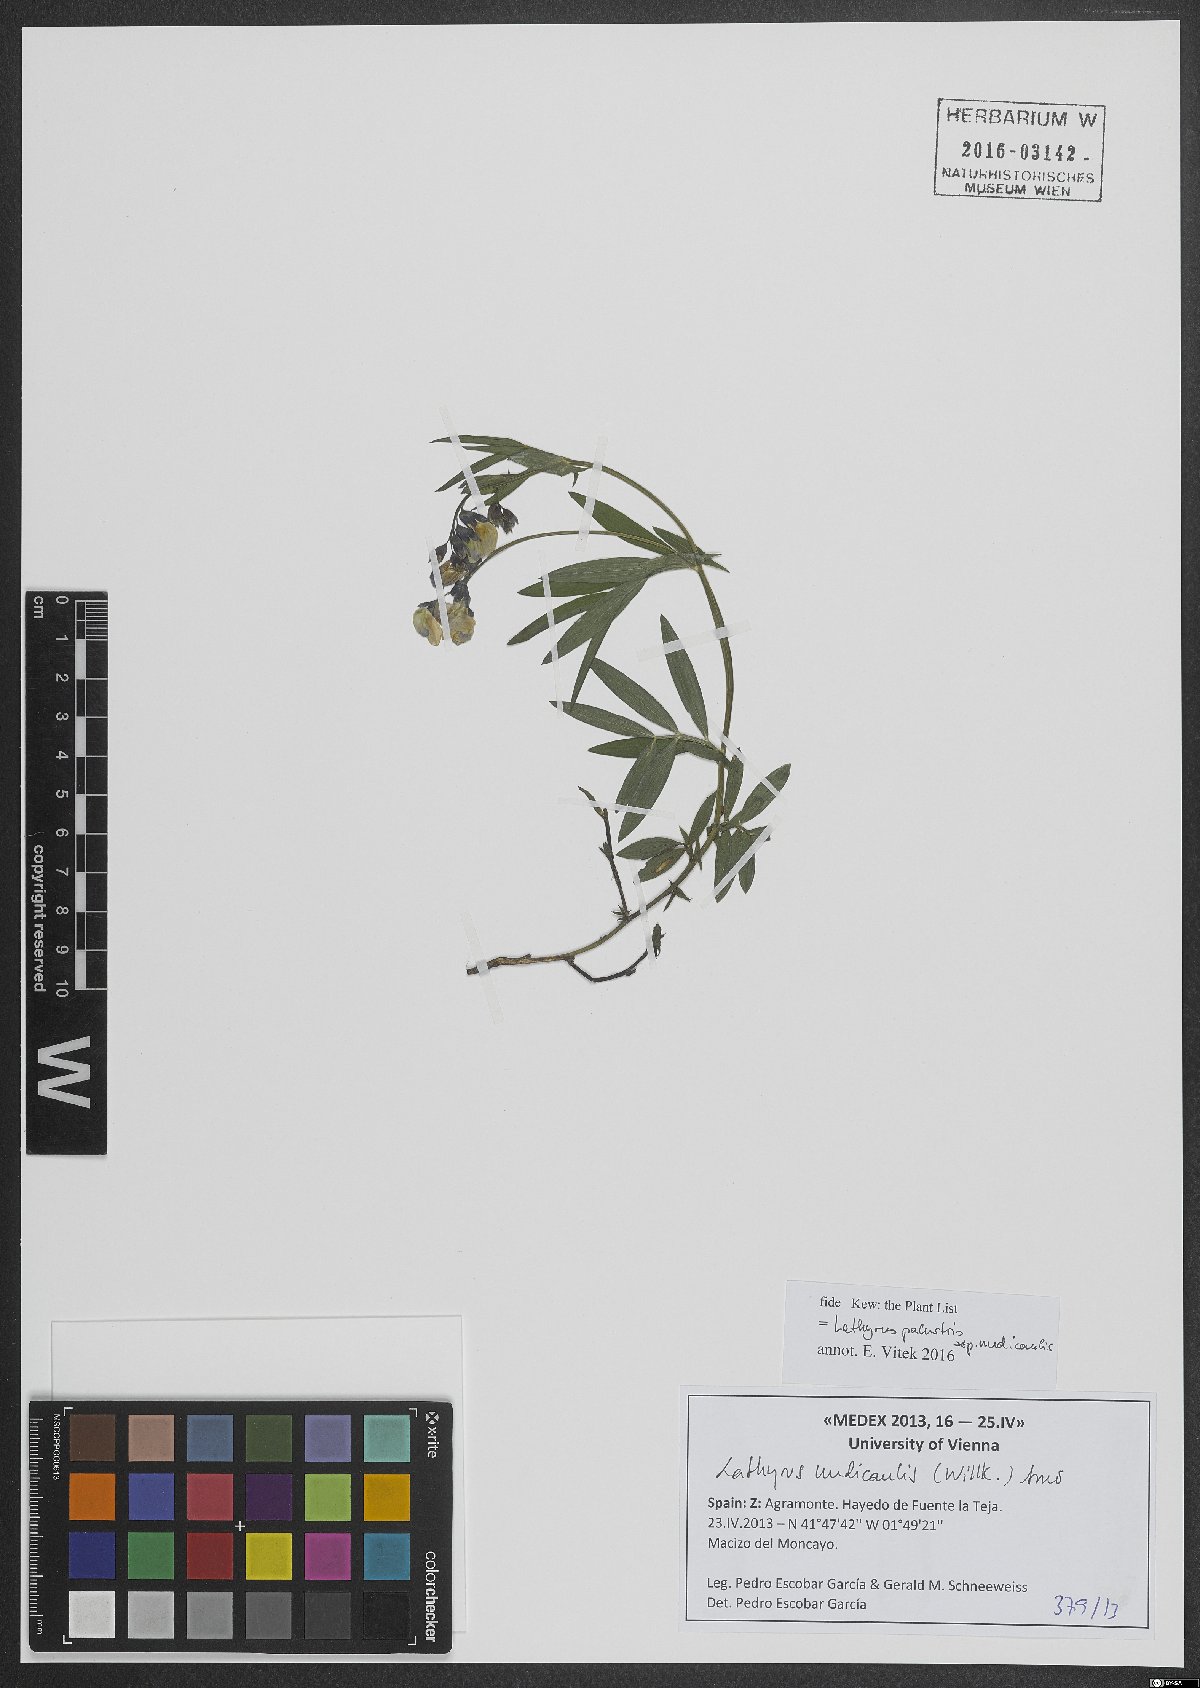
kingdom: Plantae
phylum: Tracheophyta
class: Magnoliopsida
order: Fabales
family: Fabaceae
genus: Lathyrus
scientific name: Lathyrus palustris
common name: Marsh pea
